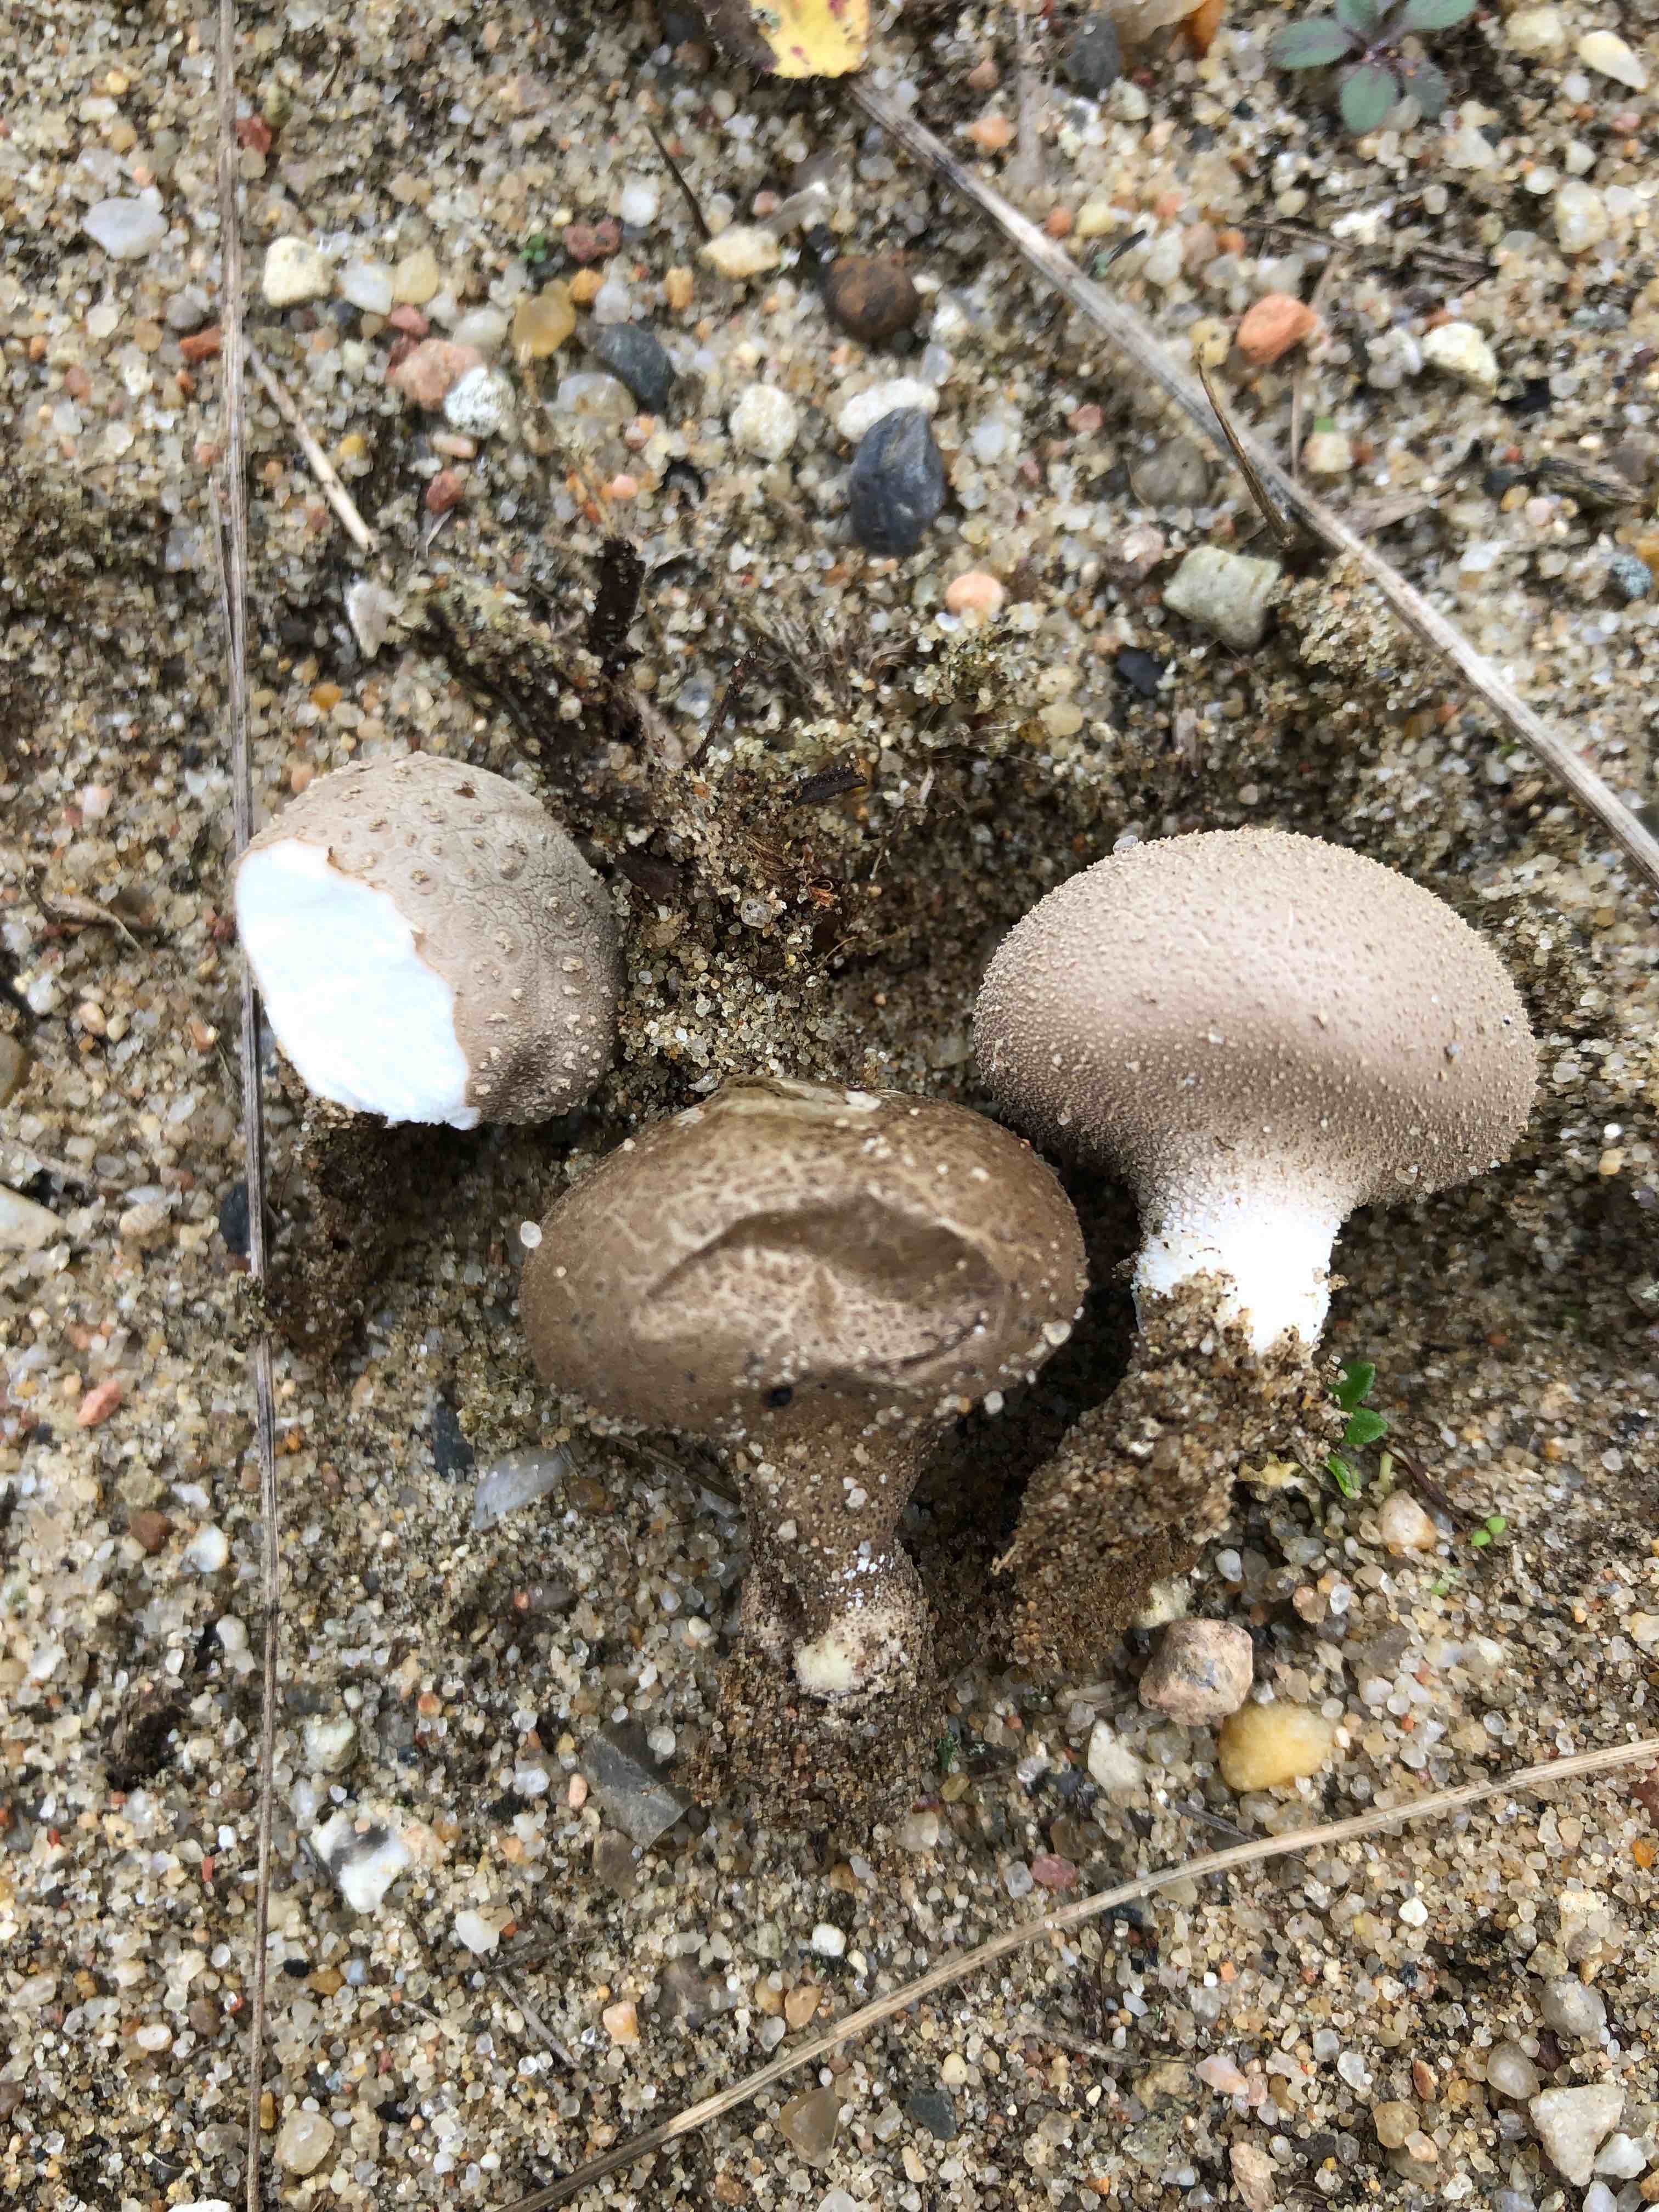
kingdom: Fungi
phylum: Basidiomycota
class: Agaricomycetes
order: Agaricales
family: Lycoperdaceae
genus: Lycoperdon
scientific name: Lycoperdon lividum
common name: mark-støvbold
